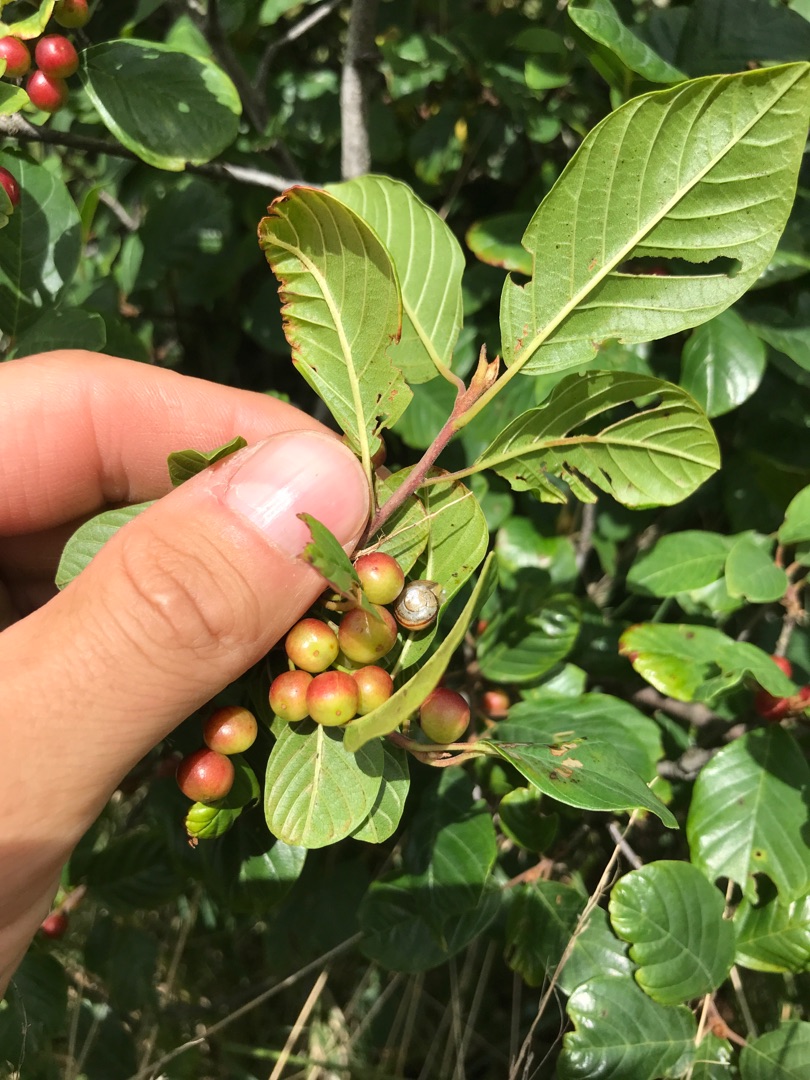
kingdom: Plantae
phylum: Tracheophyta
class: Magnoliopsida
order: Rosales
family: Rhamnaceae
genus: Frangula
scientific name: Frangula alnus
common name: Tørst
